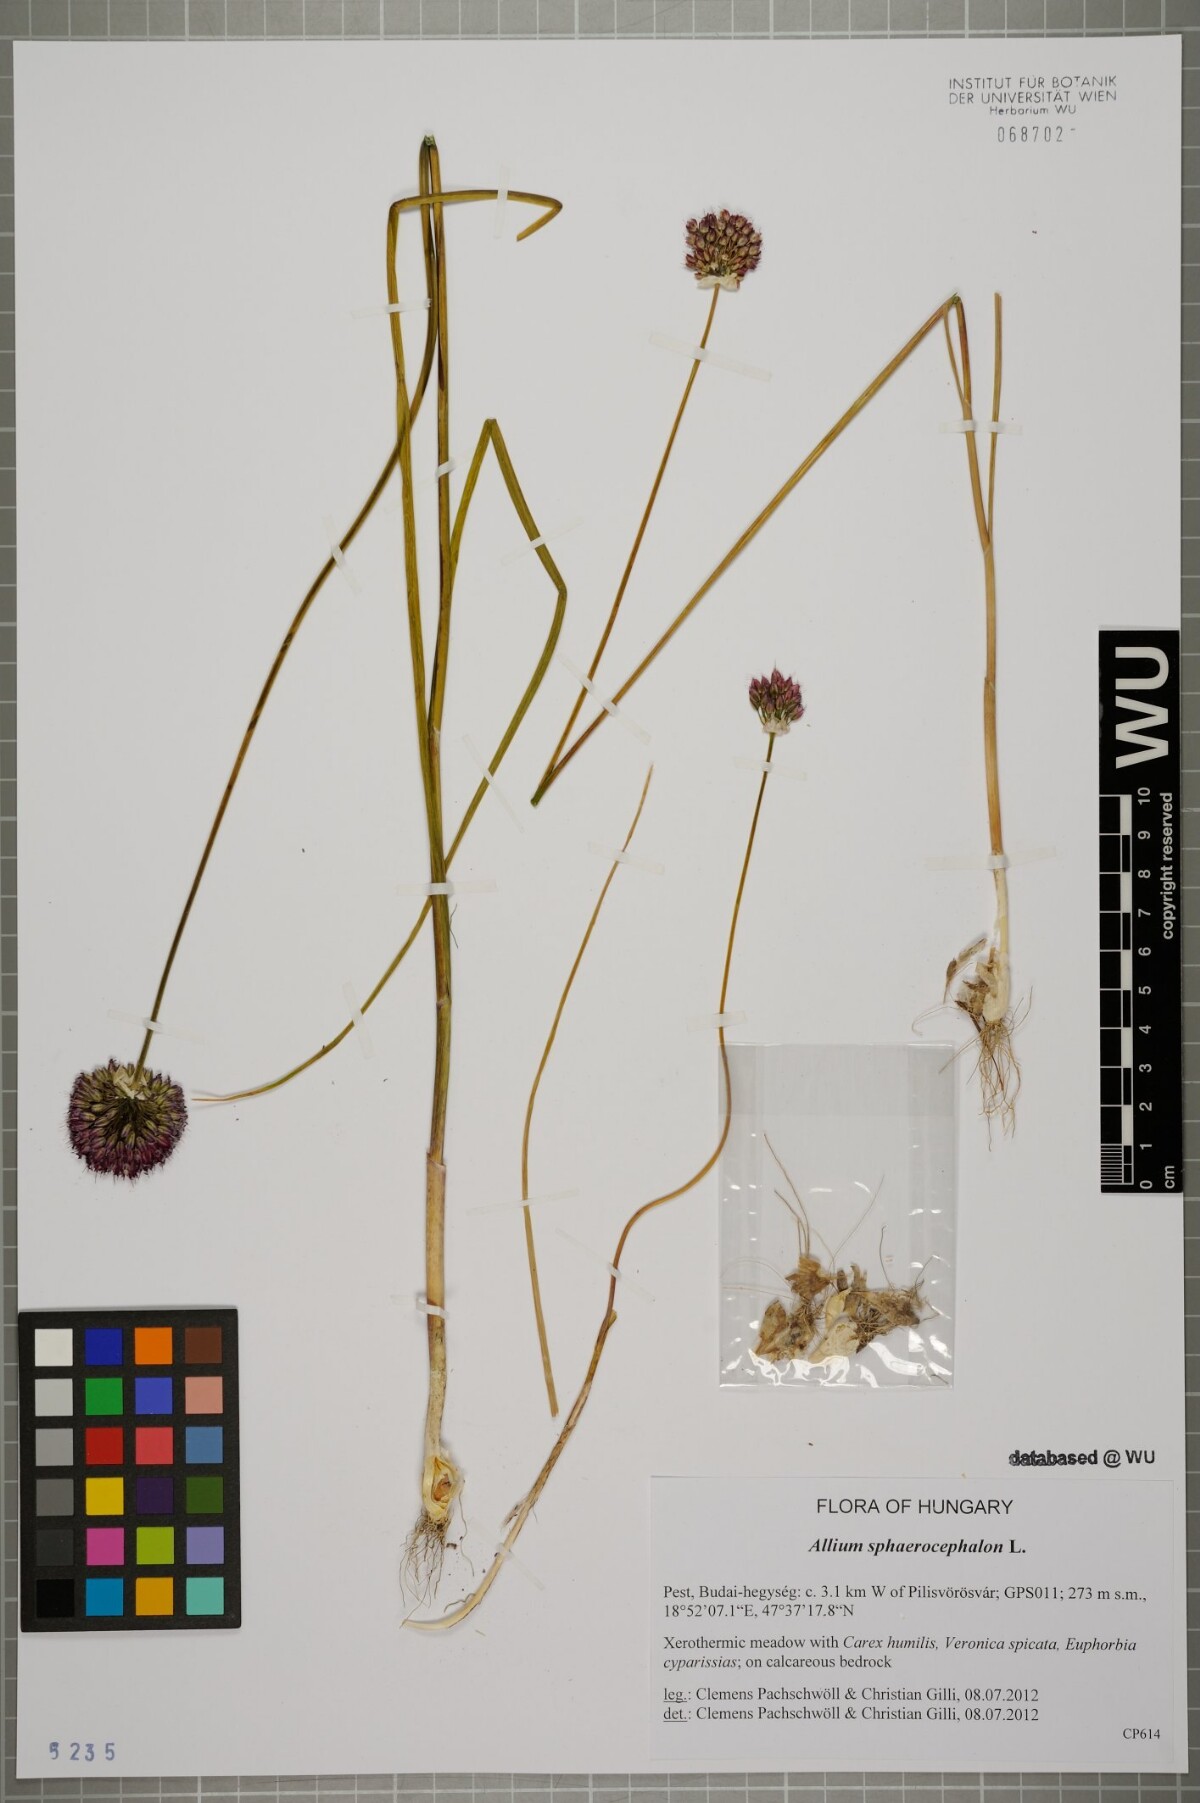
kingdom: Plantae
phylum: Tracheophyta
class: Liliopsida
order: Asparagales
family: Amaryllidaceae
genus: Allium
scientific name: Allium sphaerocephalon
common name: Round-headed leek
